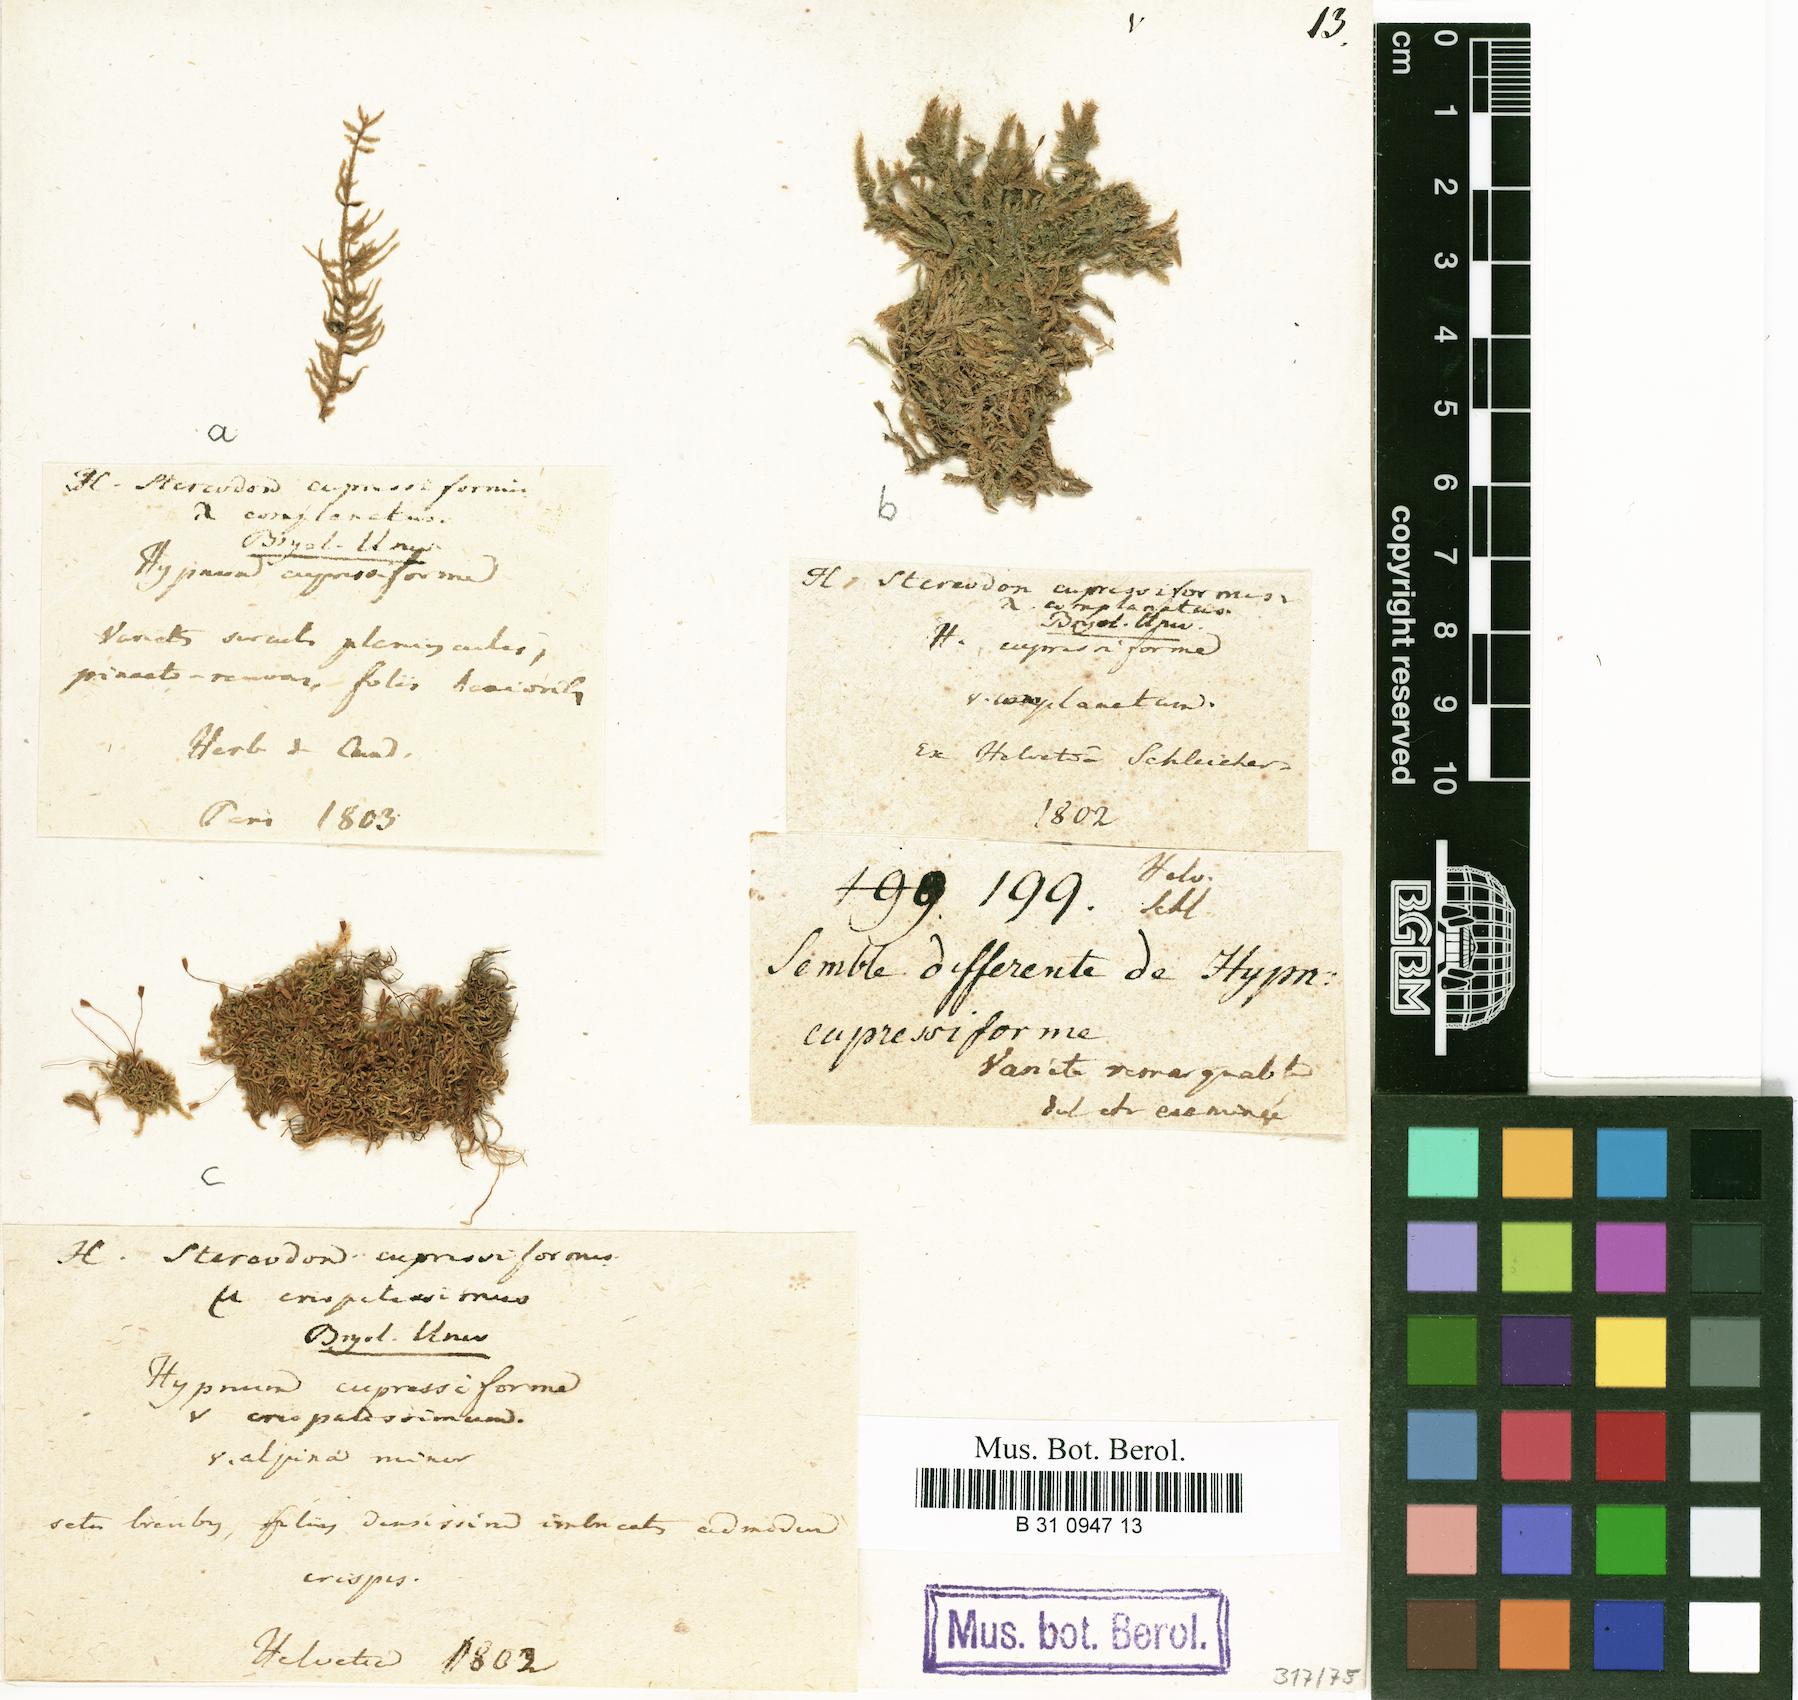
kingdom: Plantae
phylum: Bryophyta
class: Bryopsida
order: Hypnales
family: Hypnaceae
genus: Hypnum
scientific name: Hypnum cupressiforme
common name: Cypress-leaved plait-moss
